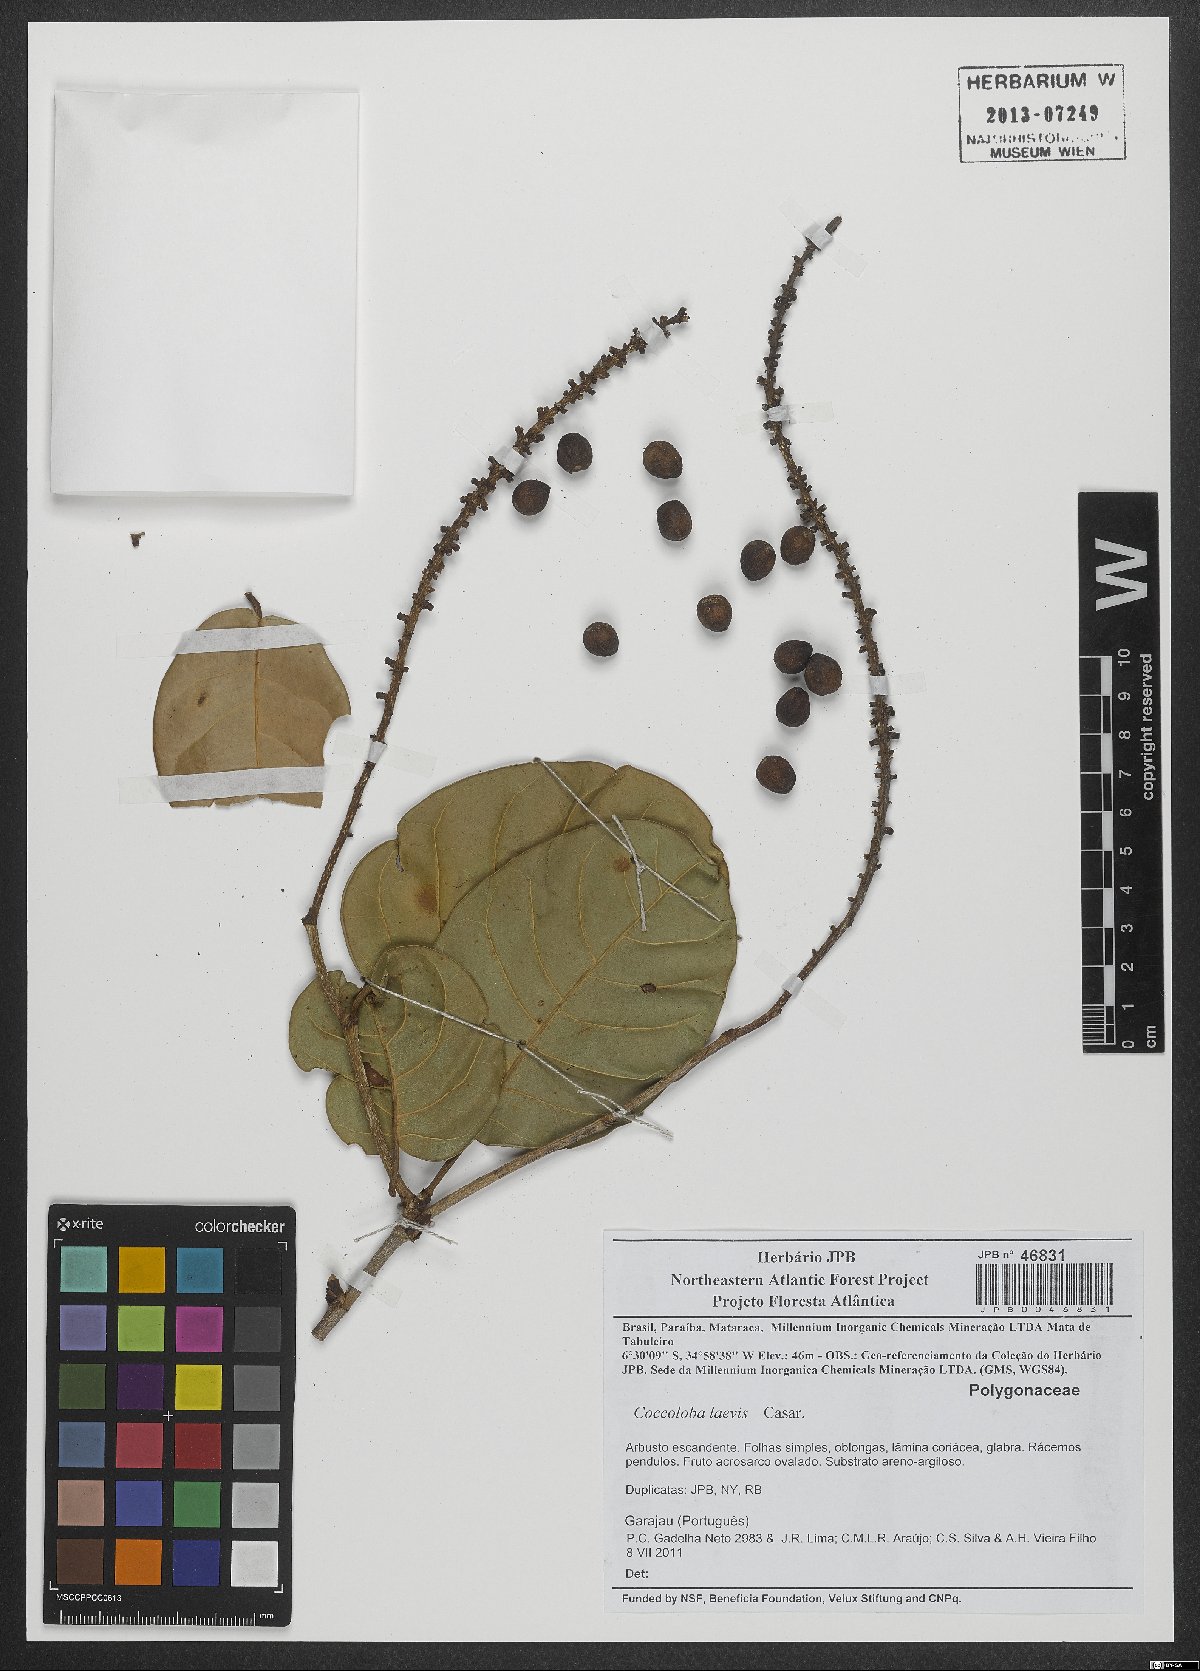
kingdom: Plantae
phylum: Tracheophyta
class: Magnoliopsida
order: Caryophyllales
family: Polygonaceae
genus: Coccoloba
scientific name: Coccoloba laevis
